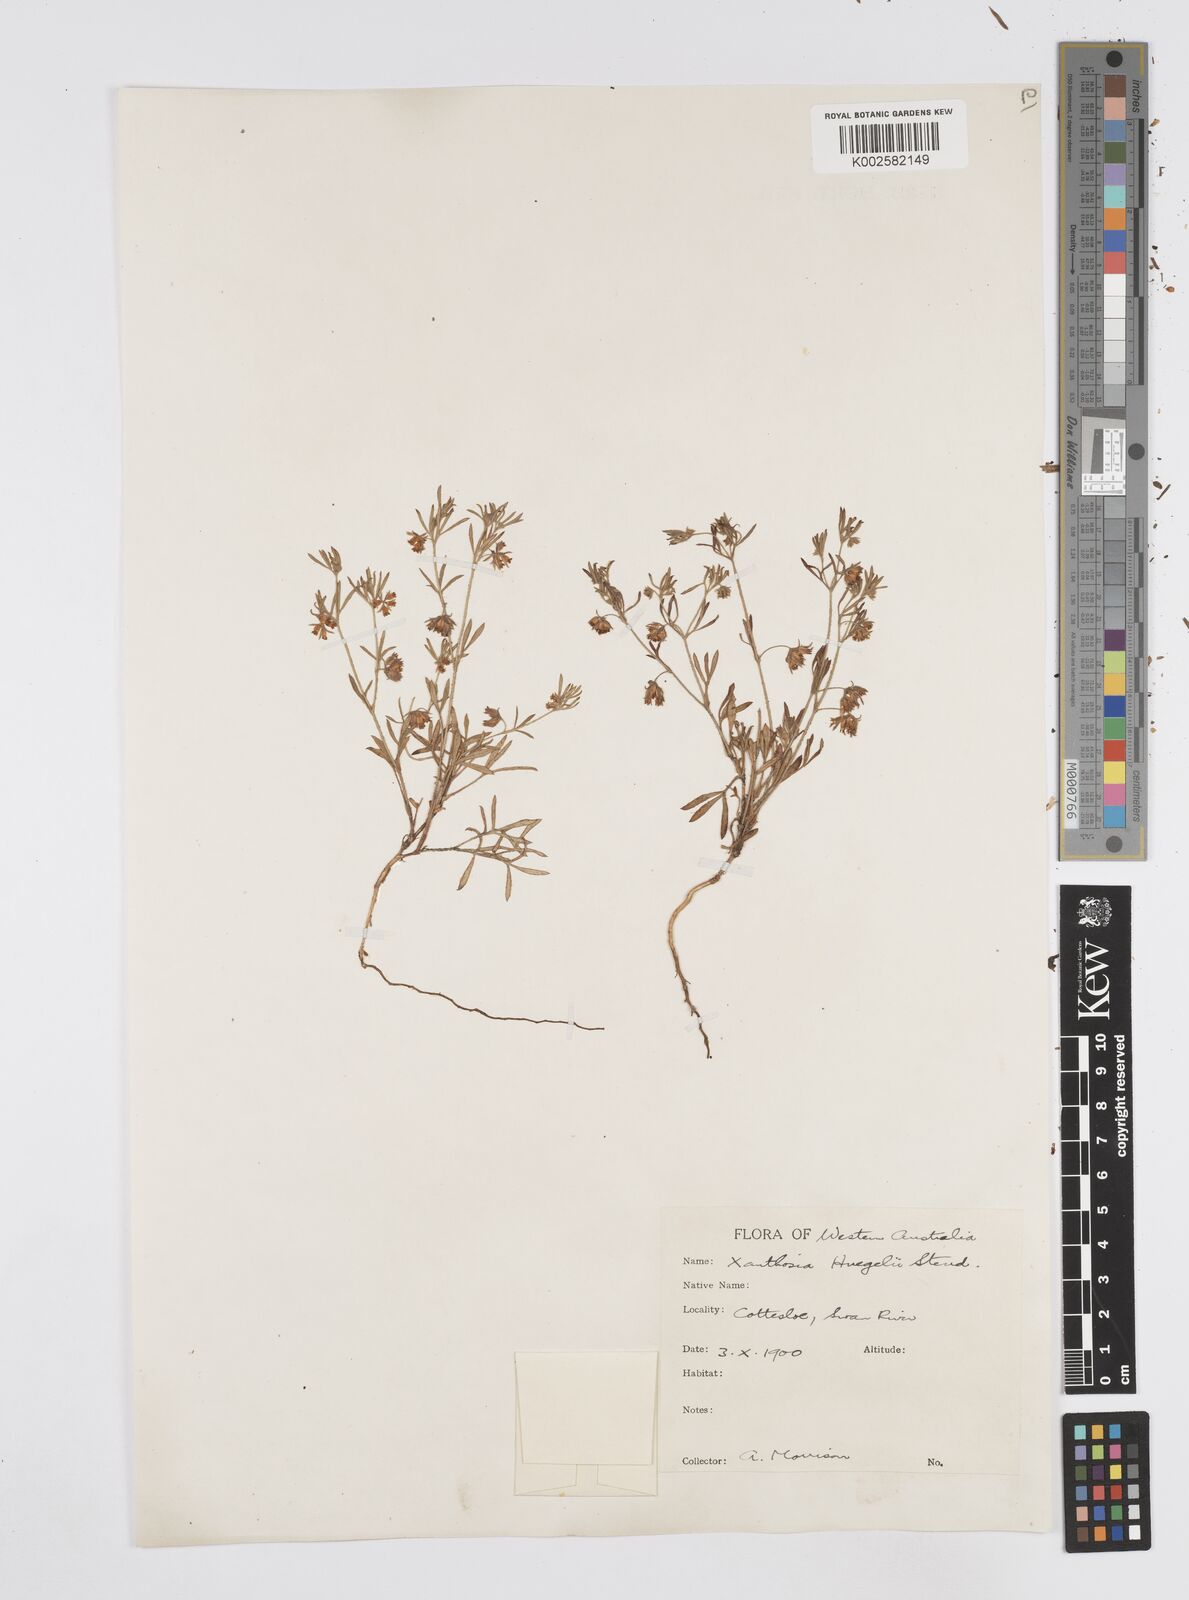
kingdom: Plantae
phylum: Tracheophyta
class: Magnoliopsida
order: Apiales
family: Apiaceae
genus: Xanthosia
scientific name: Xanthosia huegelii
